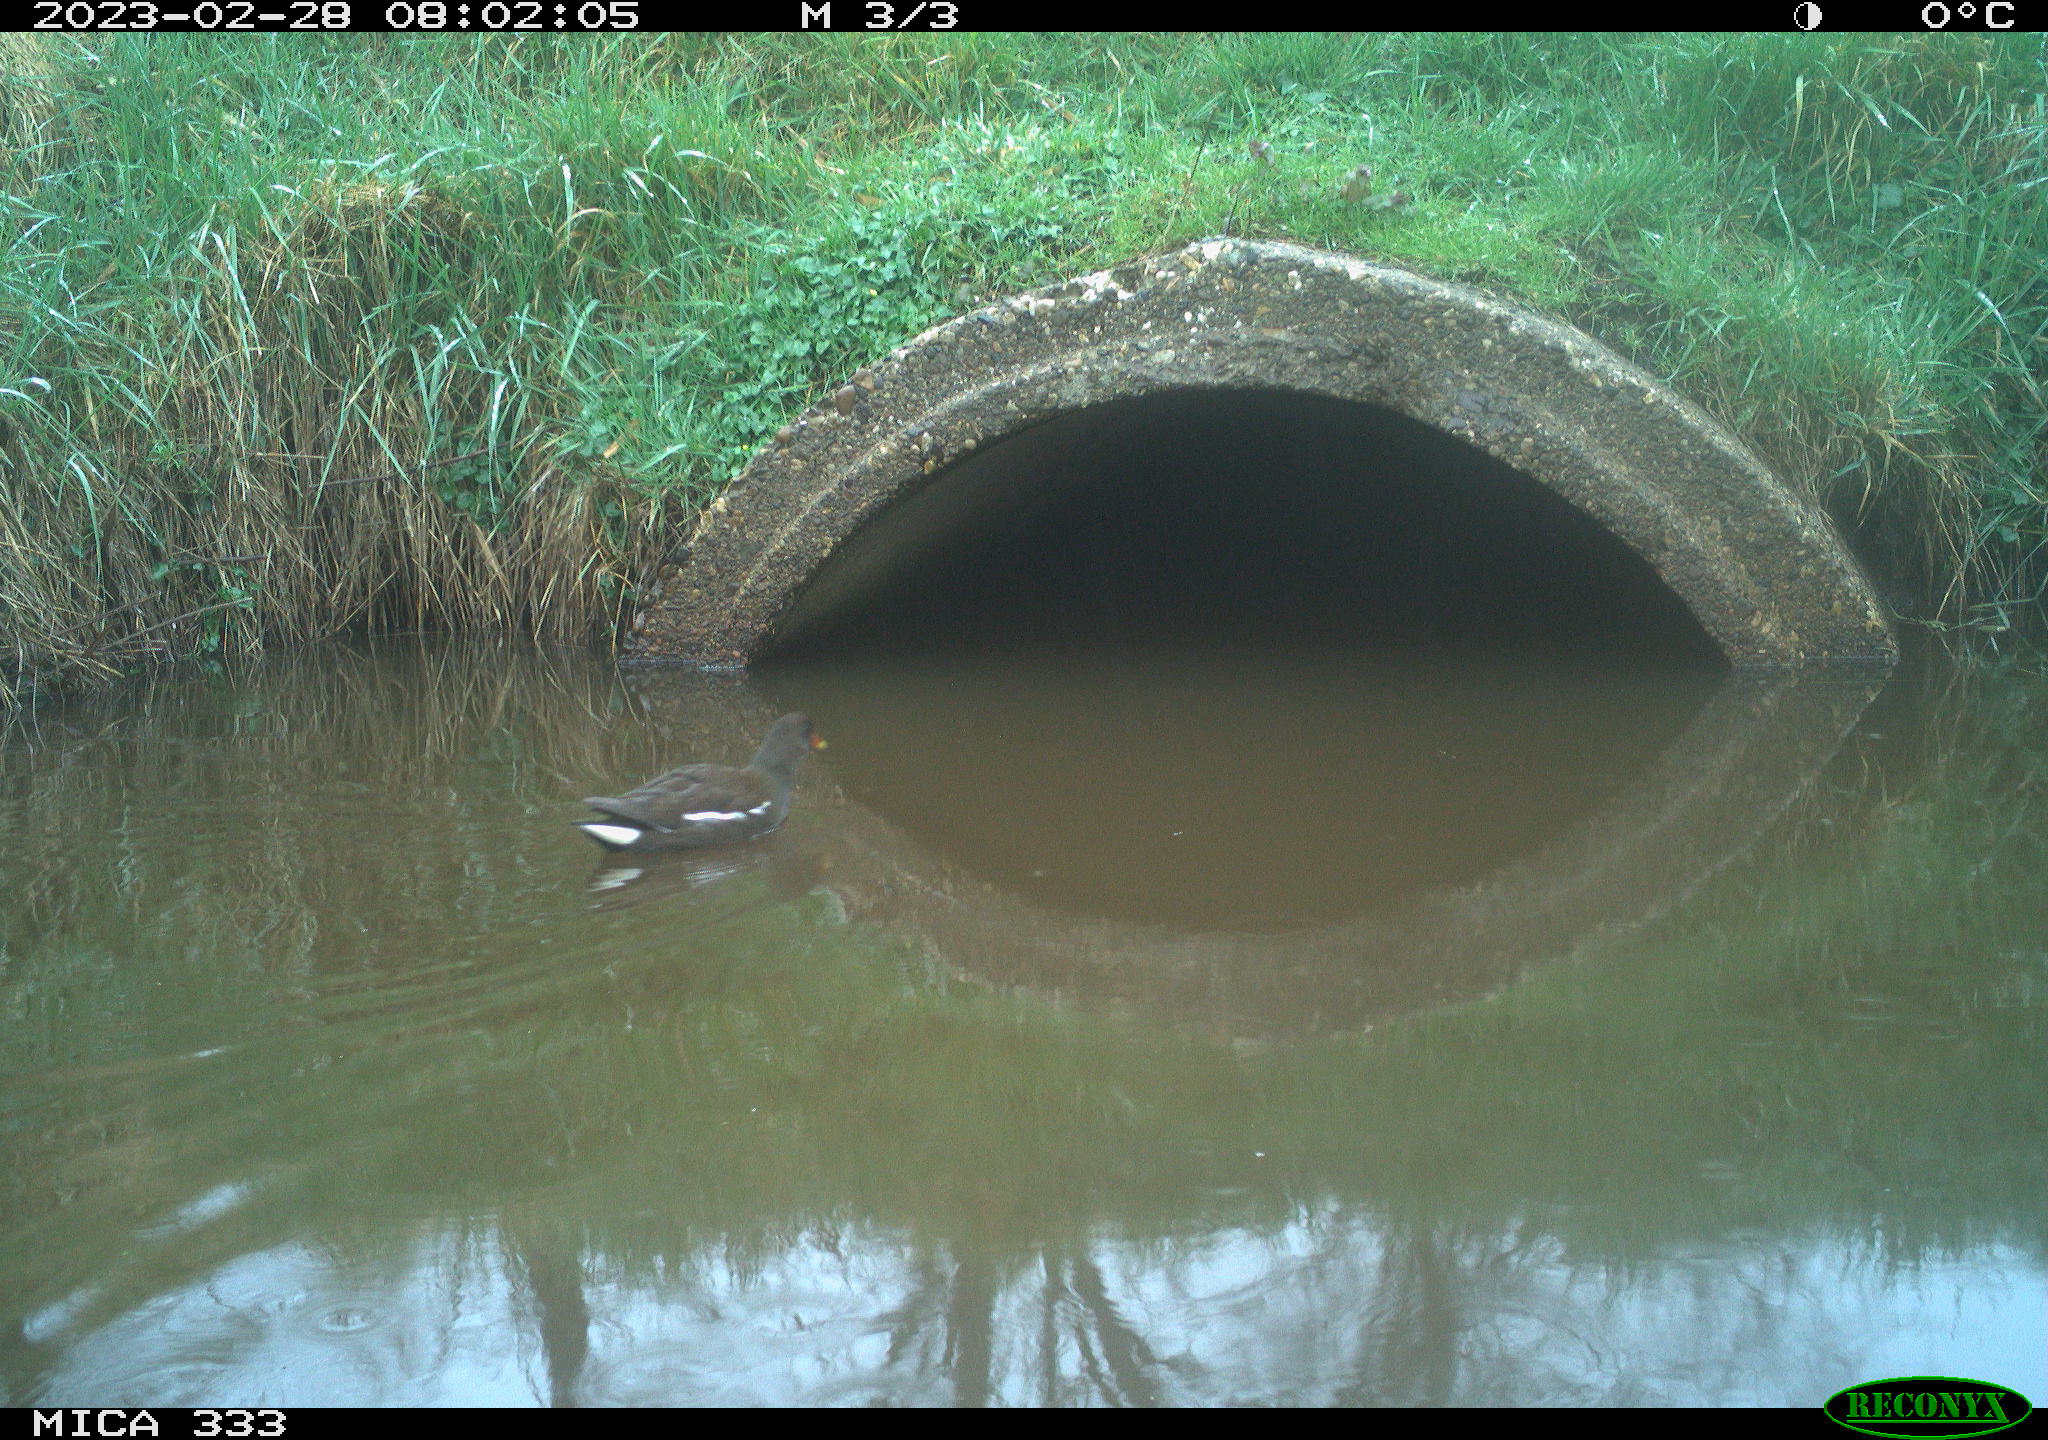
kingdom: Animalia
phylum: Chordata
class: Aves
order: Gruiformes
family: Rallidae
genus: Gallinula
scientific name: Gallinula chloropus
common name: Common moorhen
